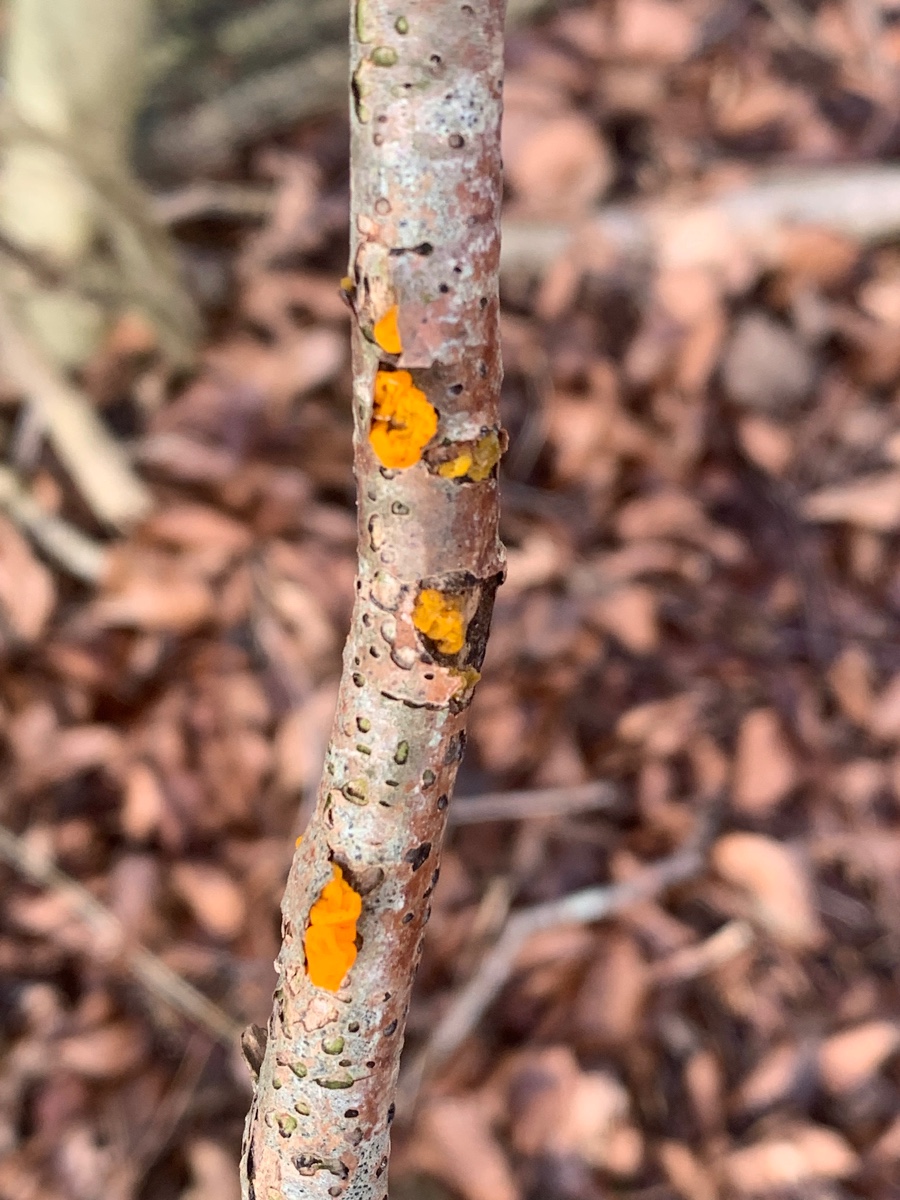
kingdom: Fungi
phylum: Basidiomycota
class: Tremellomycetes
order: Tremellales
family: Tremellaceae
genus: Tremella
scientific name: Tremella mesenterica
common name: gul bævresvamp
